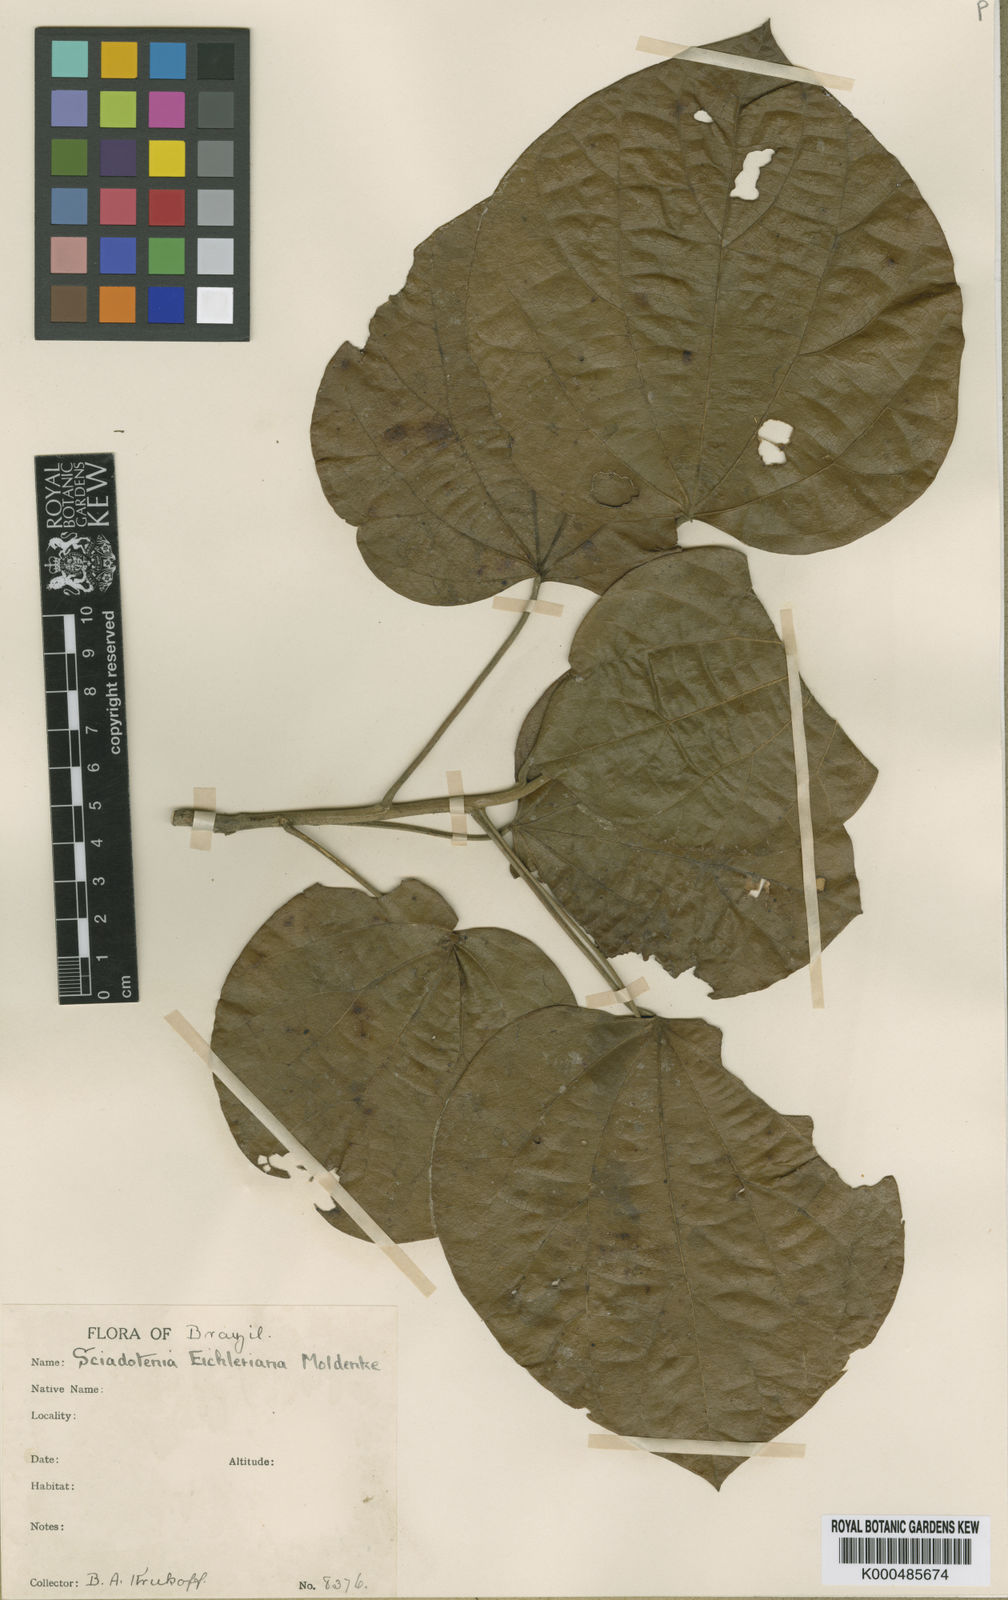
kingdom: Plantae
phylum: Tracheophyta
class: Magnoliopsida
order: Ranunculales
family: Menispermaceae
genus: Sciadotenia
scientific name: Sciadotenia eichleriana
